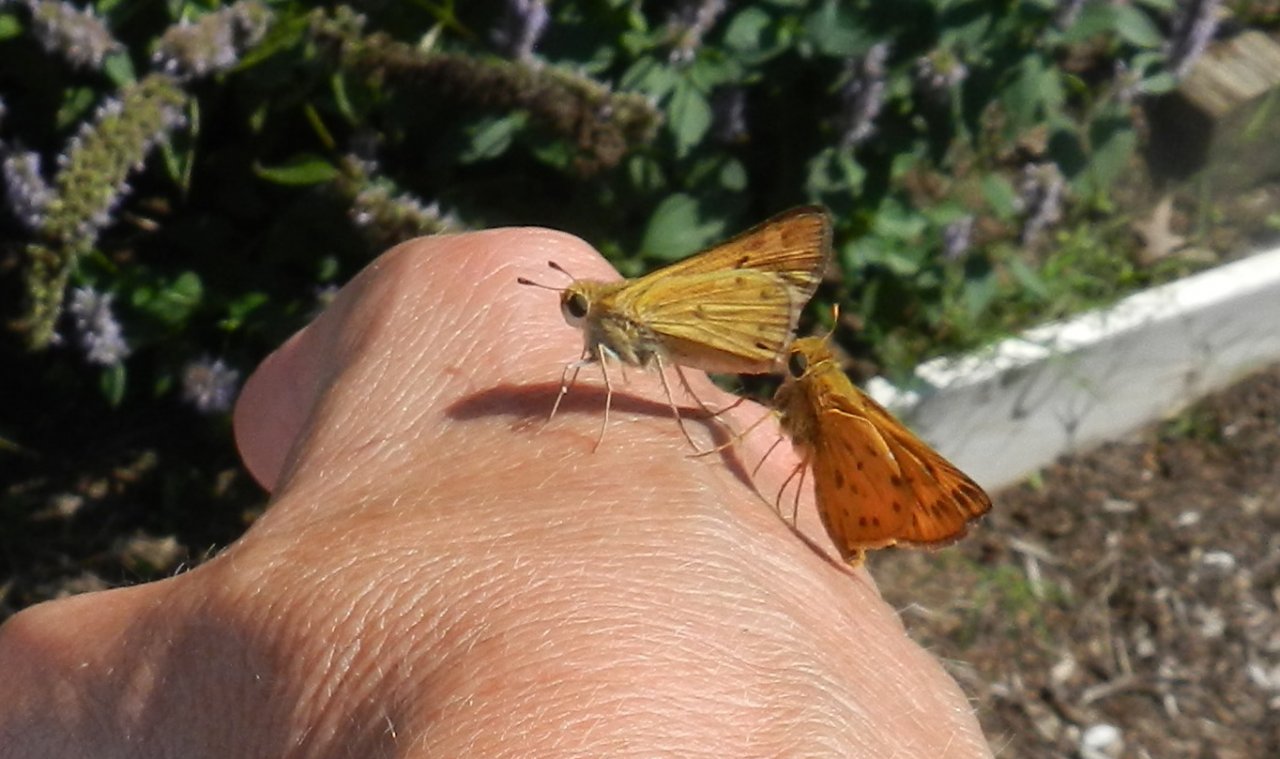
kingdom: Animalia
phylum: Arthropoda
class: Insecta
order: Lepidoptera
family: Hesperiidae
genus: Hylephila
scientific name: Hylephila phyleus
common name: Fiery Skipper
